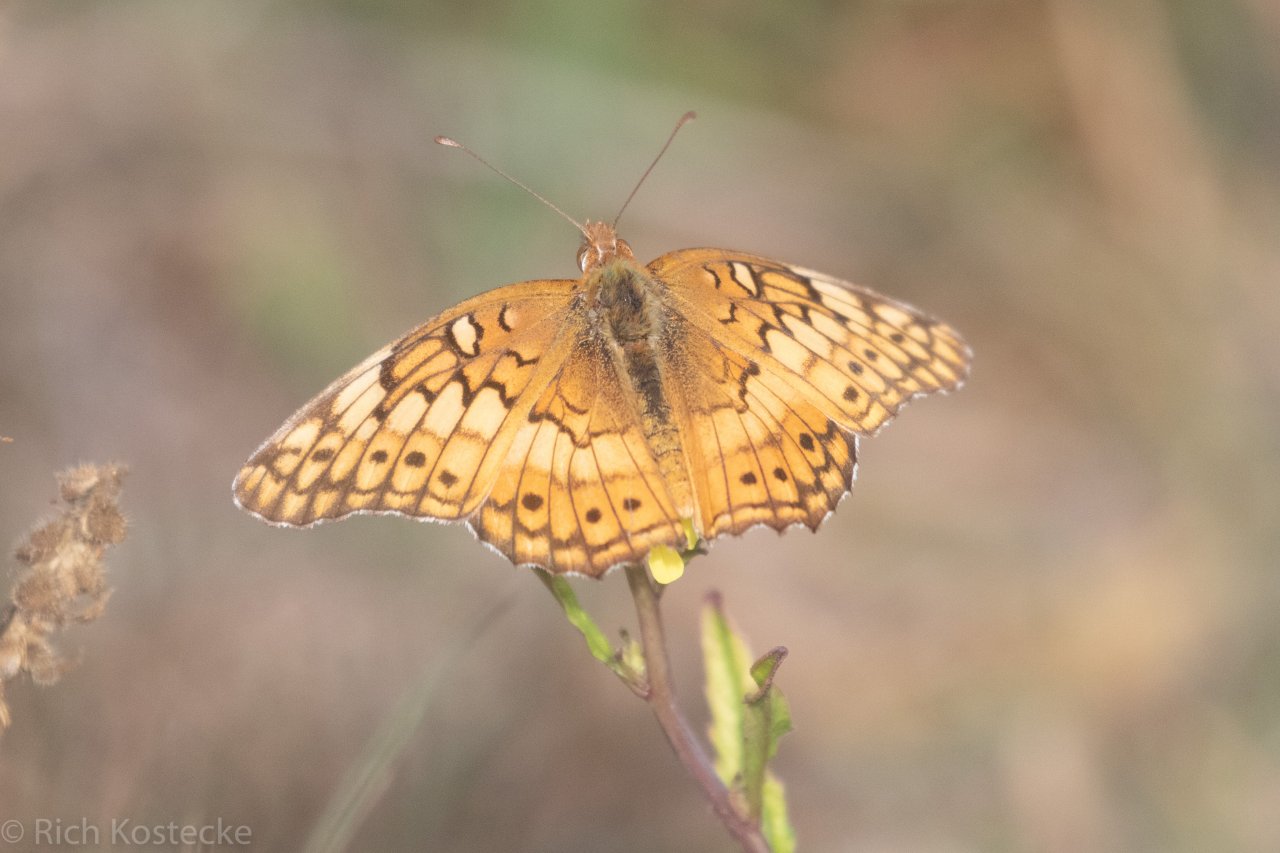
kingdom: Animalia
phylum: Arthropoda
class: Insecta
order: Lepidoptera
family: Nymphalidae
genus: Euptoieta
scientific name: Euptoieta claudia
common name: Variegated Fritillary
